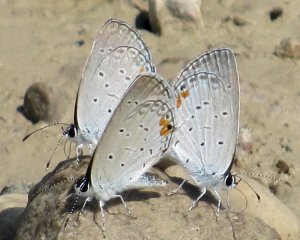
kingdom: Animalia
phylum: Arthropoda
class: Insecta
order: Lepidoptera
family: Lycaenidae
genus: Elkalyce
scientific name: Elkalyce comyntas
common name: Eastern Tailed-Blue
